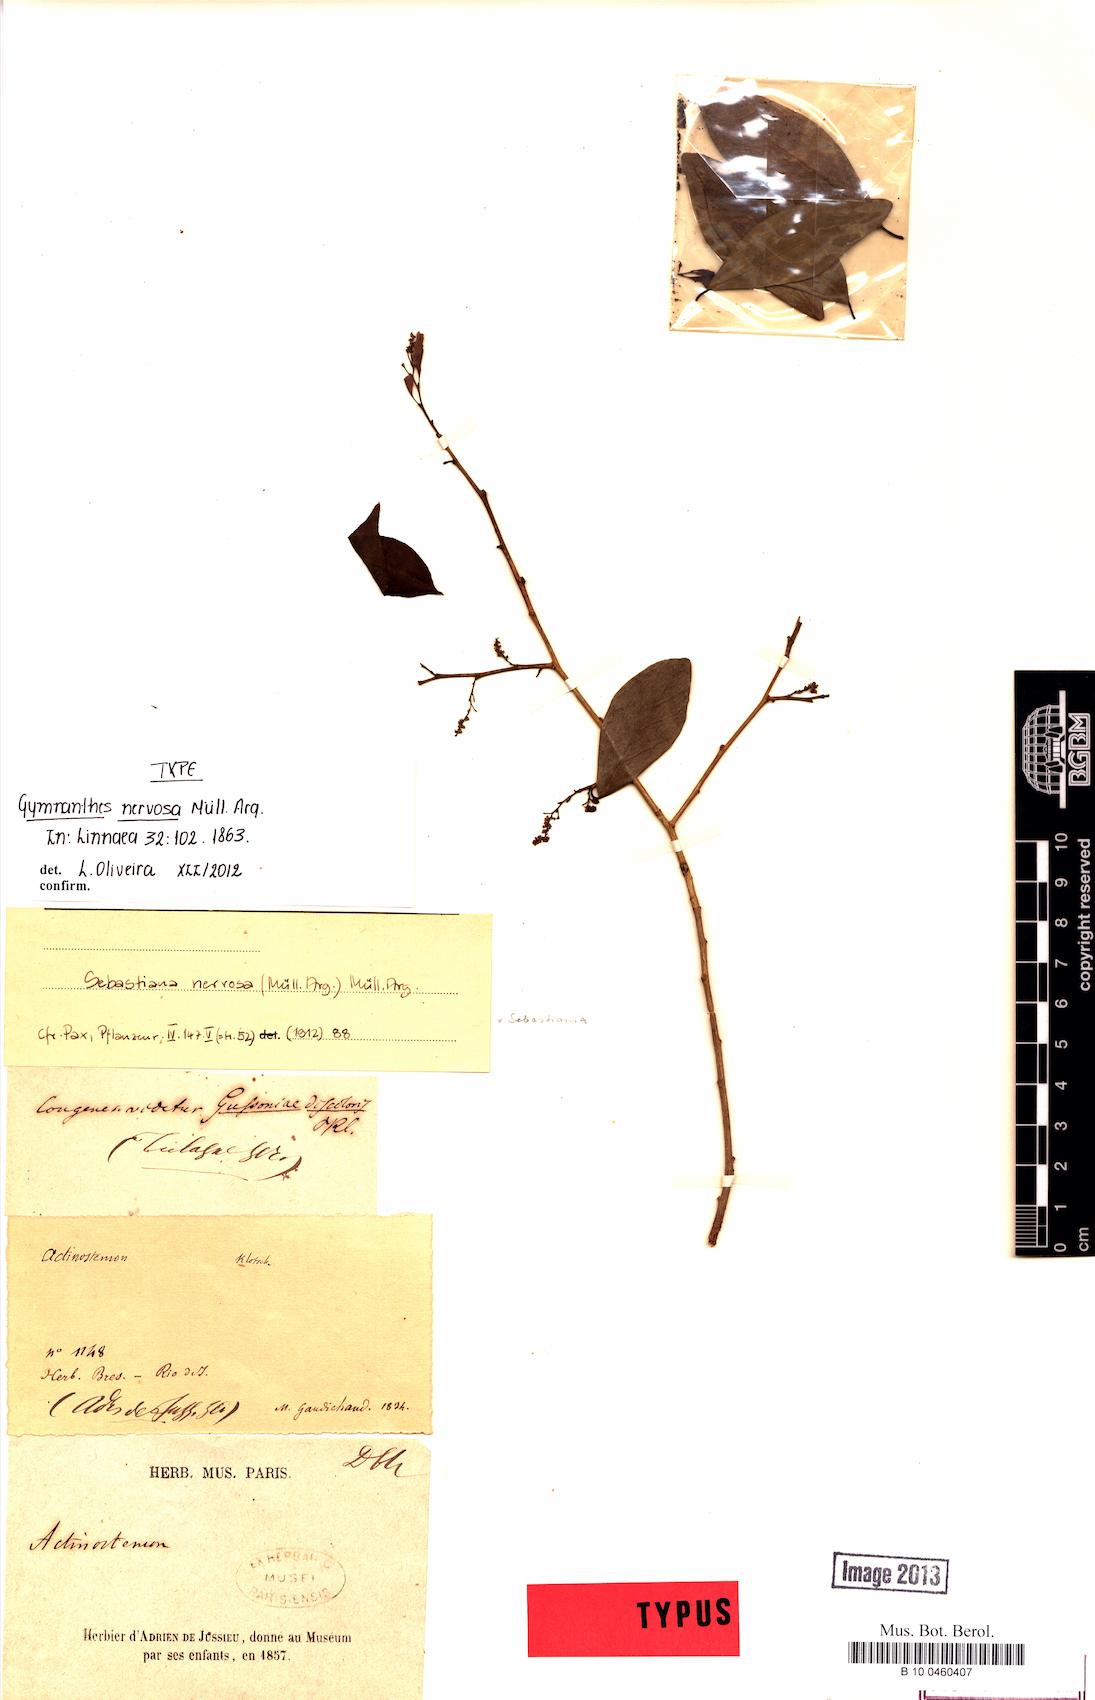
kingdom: Plantae
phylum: Tracheophyta
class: Magnoliopsida
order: Malpighiales
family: Euphorbiaceae
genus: Gymnanthes
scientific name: Gymnanthes nervosa
